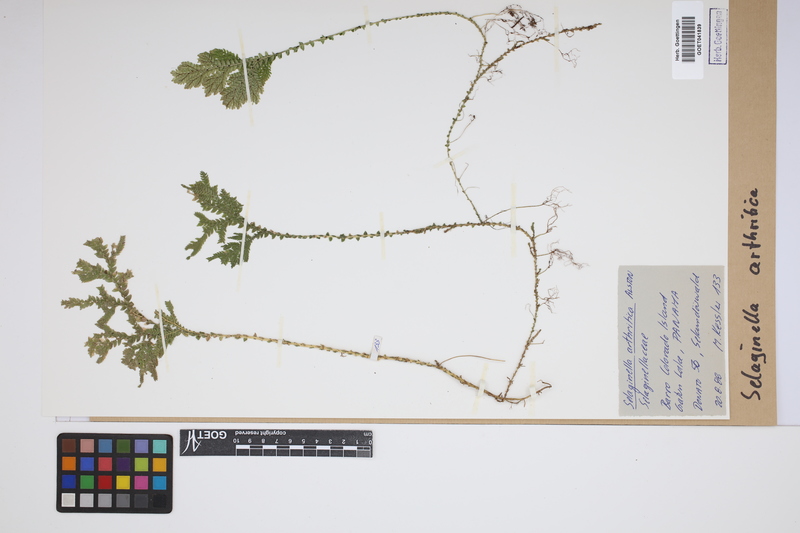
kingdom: Plantae
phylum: Tracheophyta
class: Lycopodiopsida
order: Selaginellales
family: Selaginellaceae
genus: Selaginella
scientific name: Selaginella arthritica
